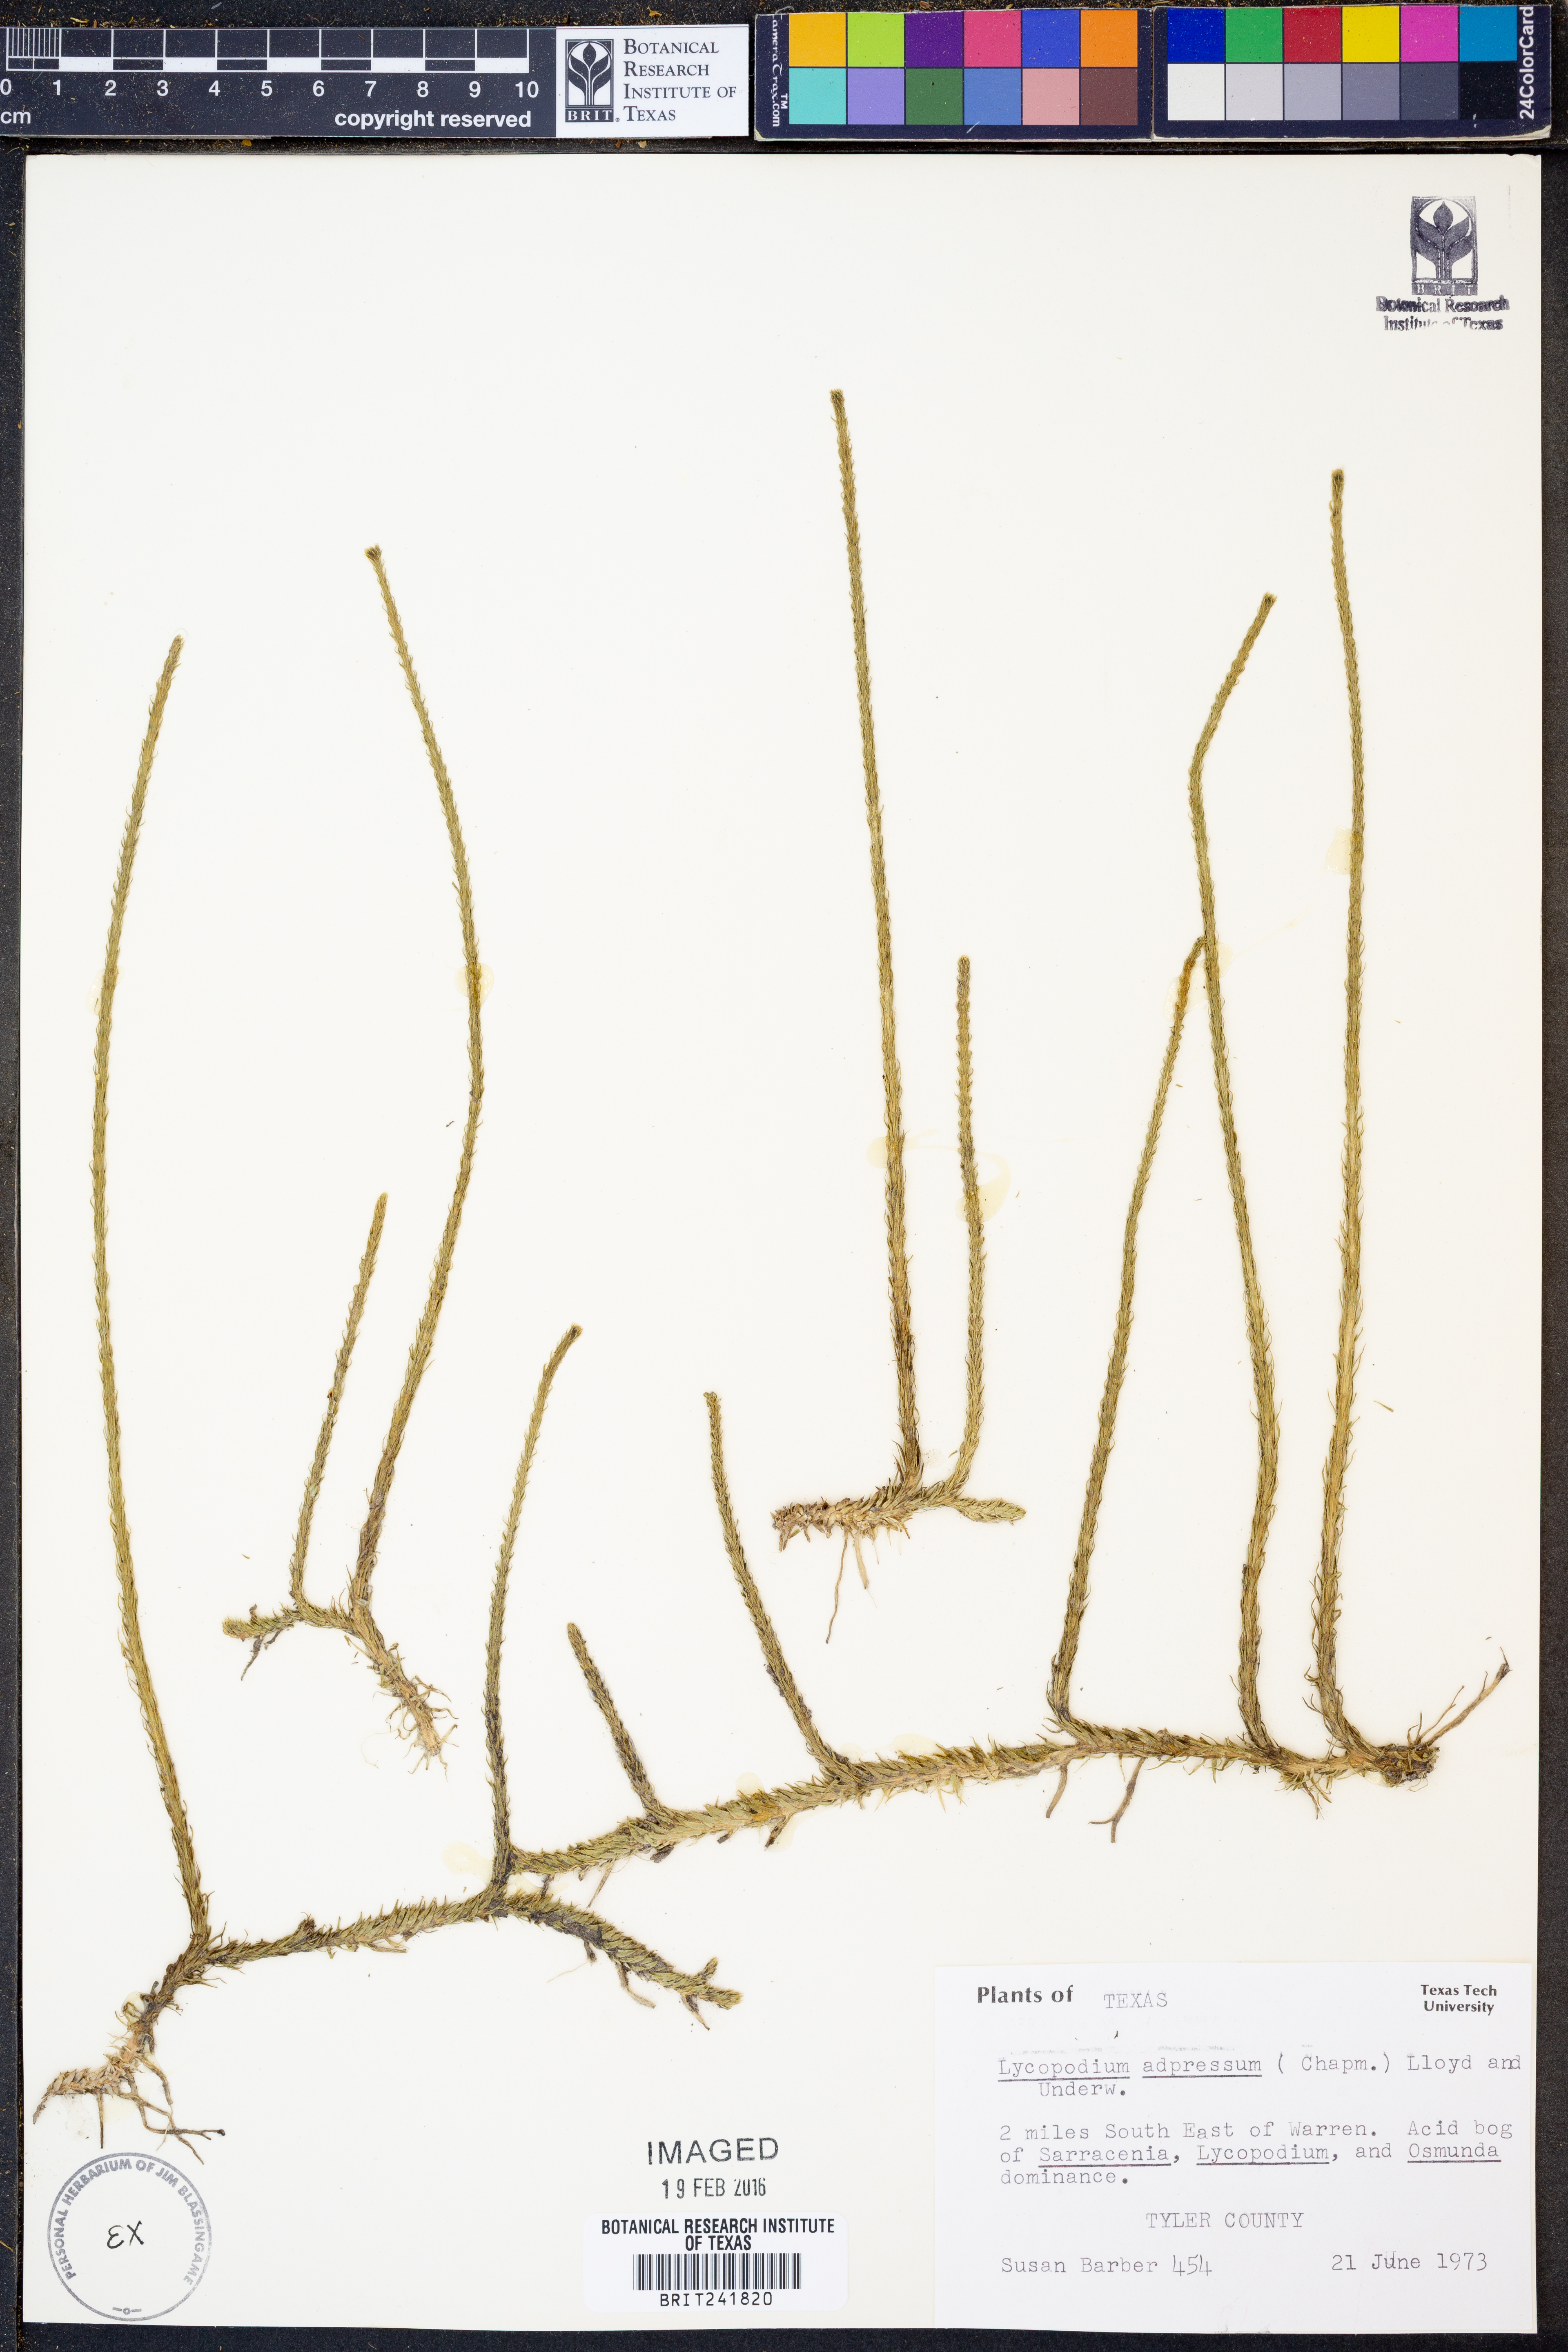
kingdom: Plantae
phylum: Tracheophyta
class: Lycopodiopsida
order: Lycopodiales
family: Lycopodiaceae
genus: Lycopodiella
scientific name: Lycopodiella appressa
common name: Appressed bog clubmoss
